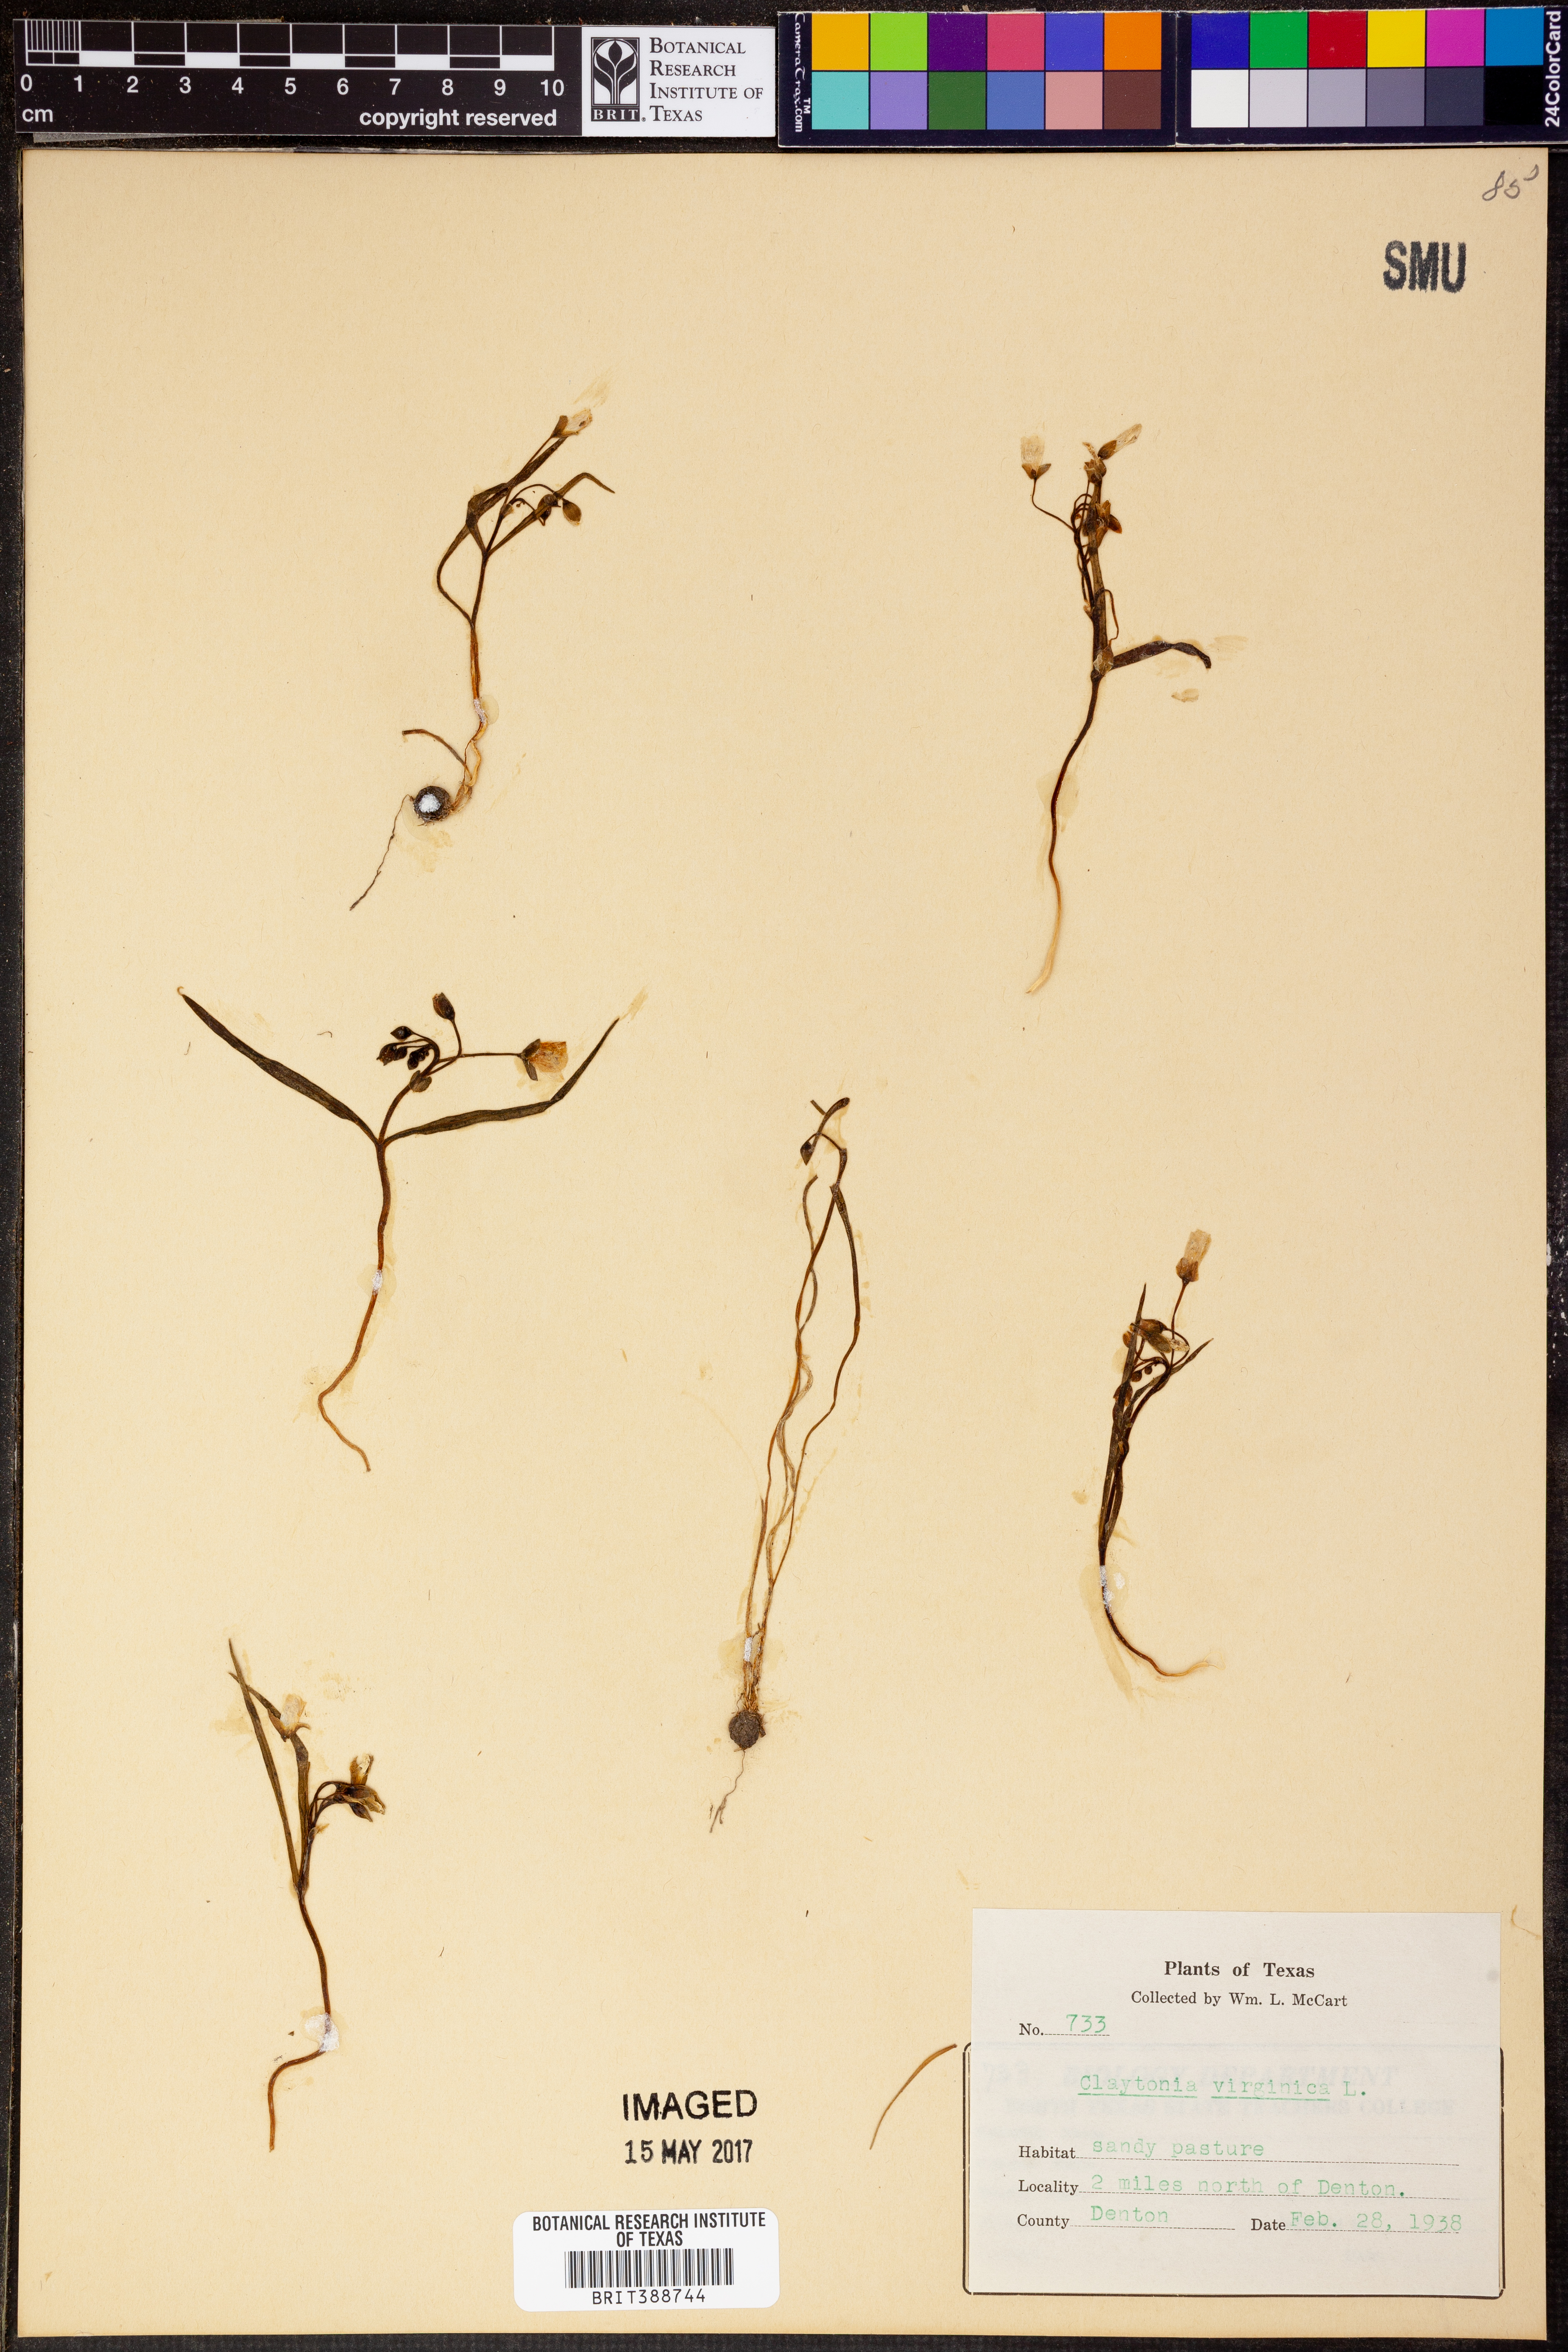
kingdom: Plantae
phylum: Tracheophyta
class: Magnoliopsida
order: Caryophyllales
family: Montiaceae
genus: Claytonia
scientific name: Claytonia virginica
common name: Virginia springbeauty
